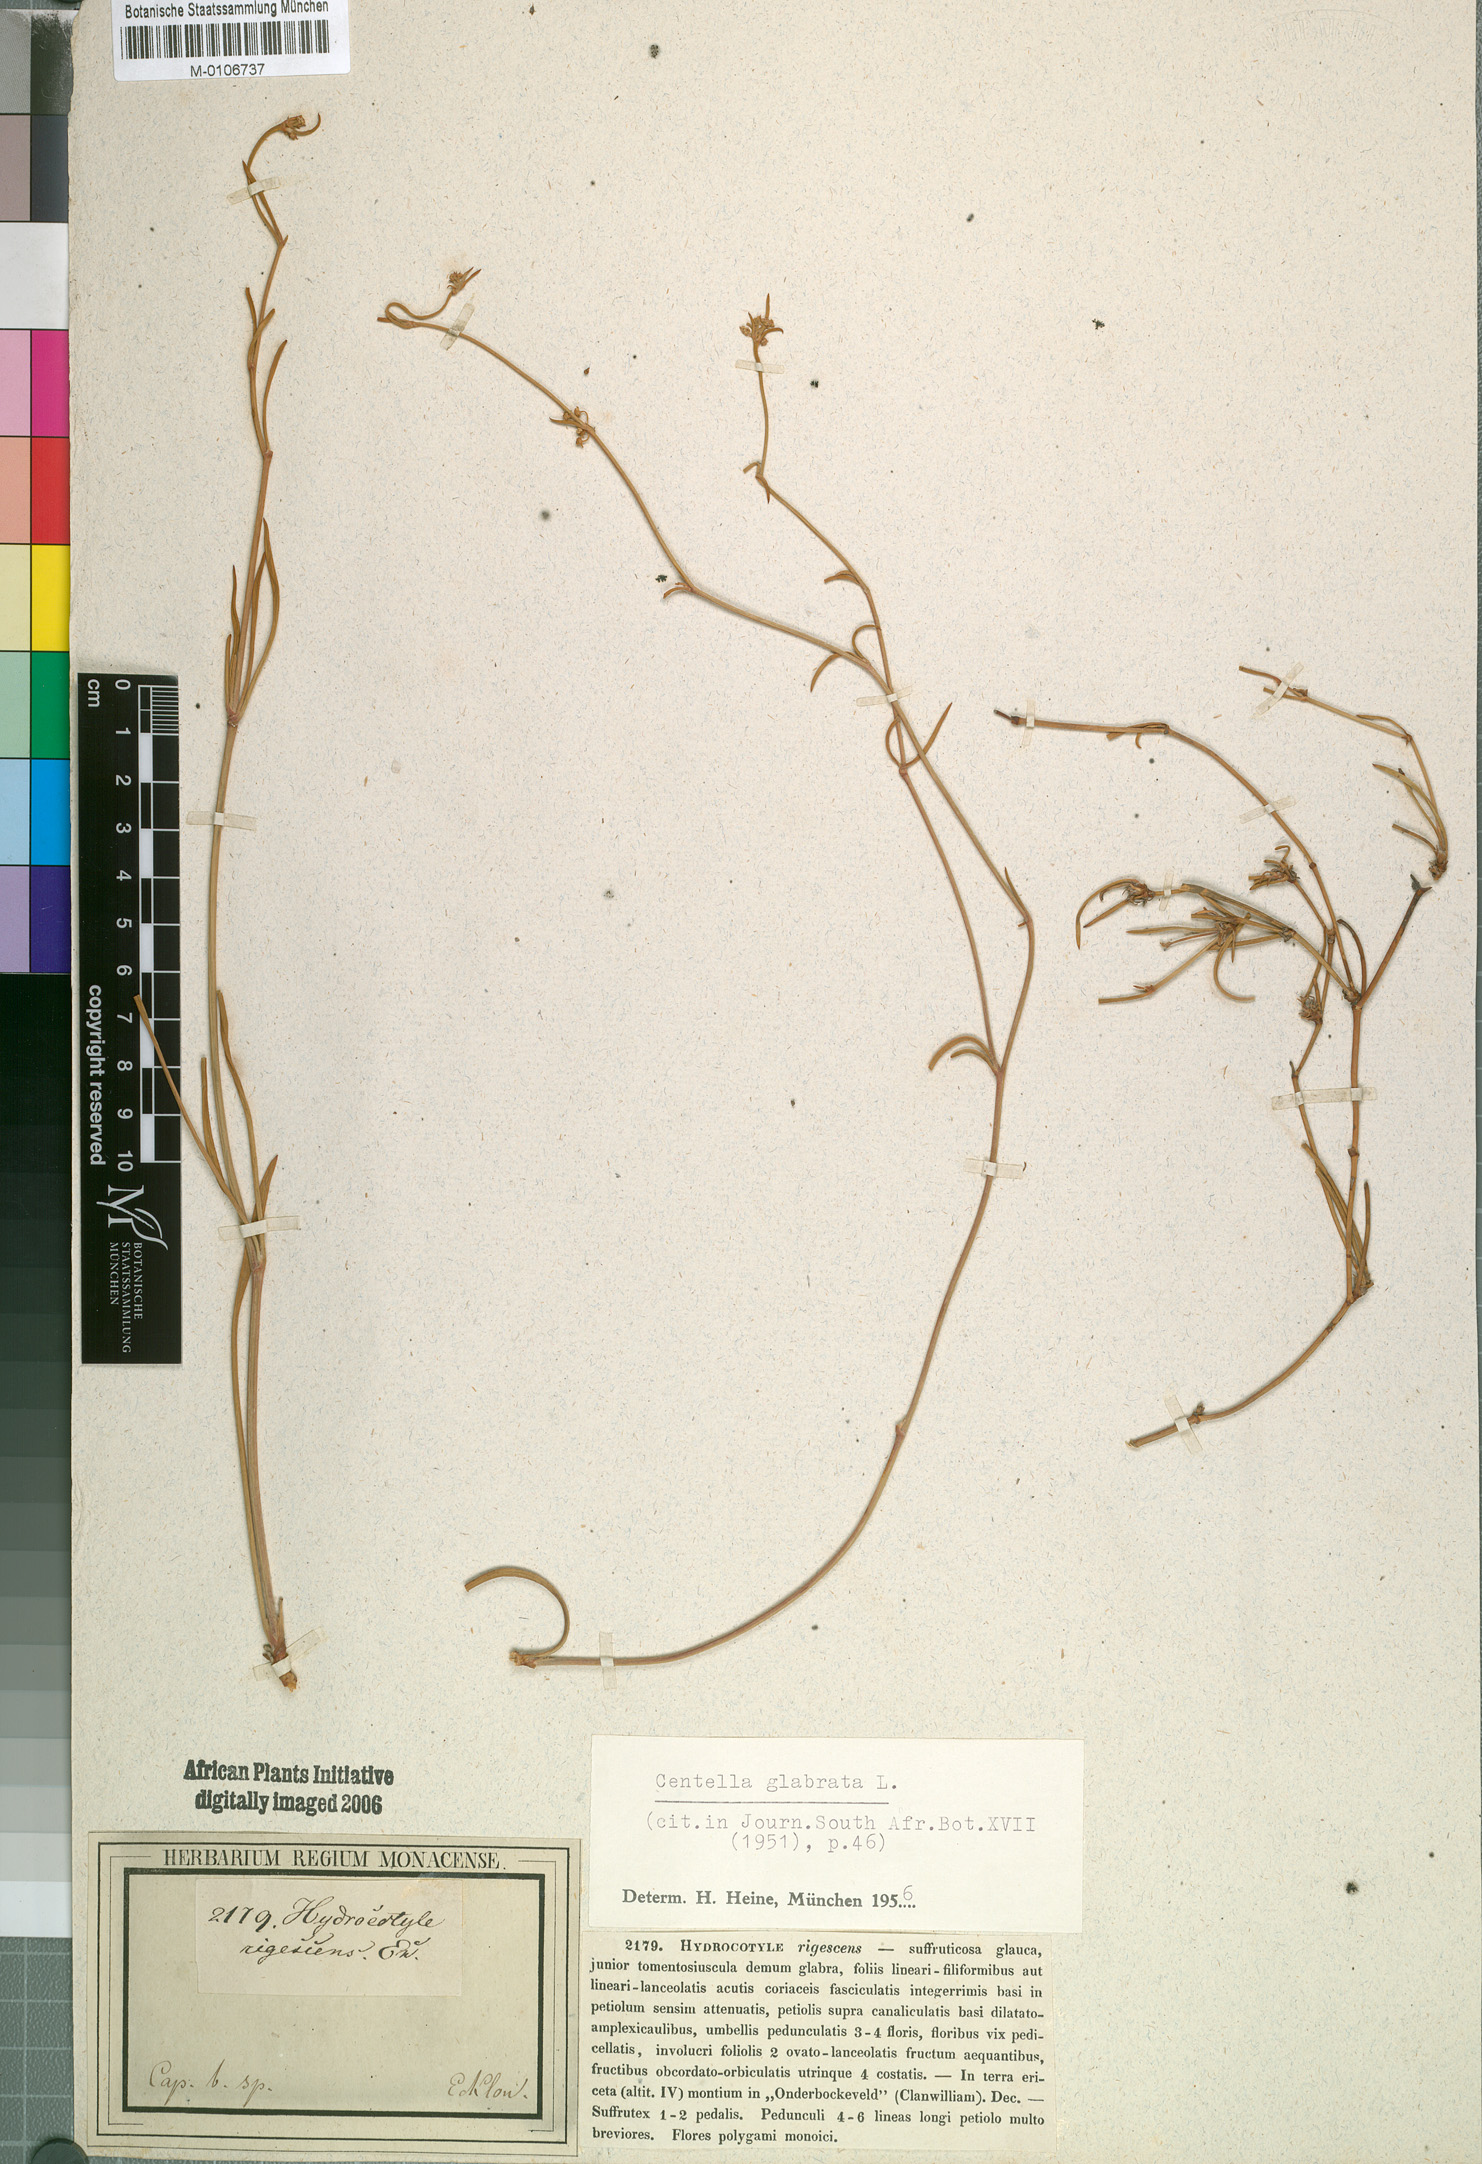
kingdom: Plantae
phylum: Tracheophyta
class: Magnoliopsida
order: Apiales
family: Apiaceae
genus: Centella
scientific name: Centella glabrata
